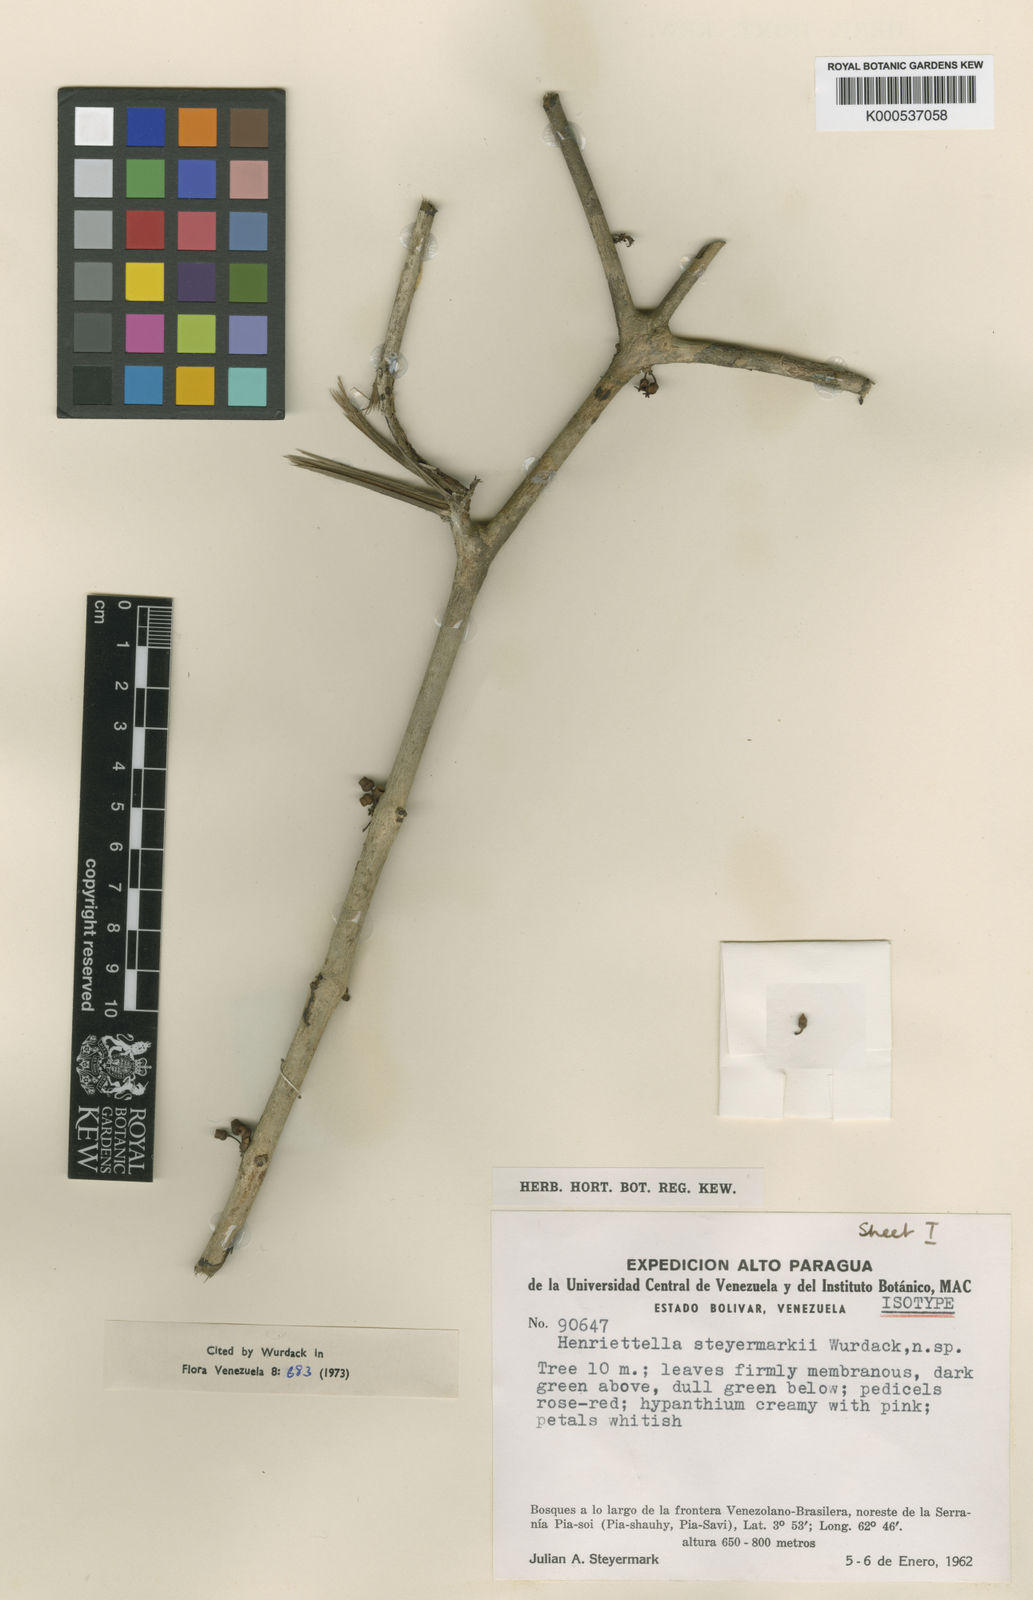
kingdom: Plantae
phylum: Tracheophyta
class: Magnoliopsida
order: Myrtales
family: Melastomataceae
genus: Henriettea
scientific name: Henriettea steyermarkii
